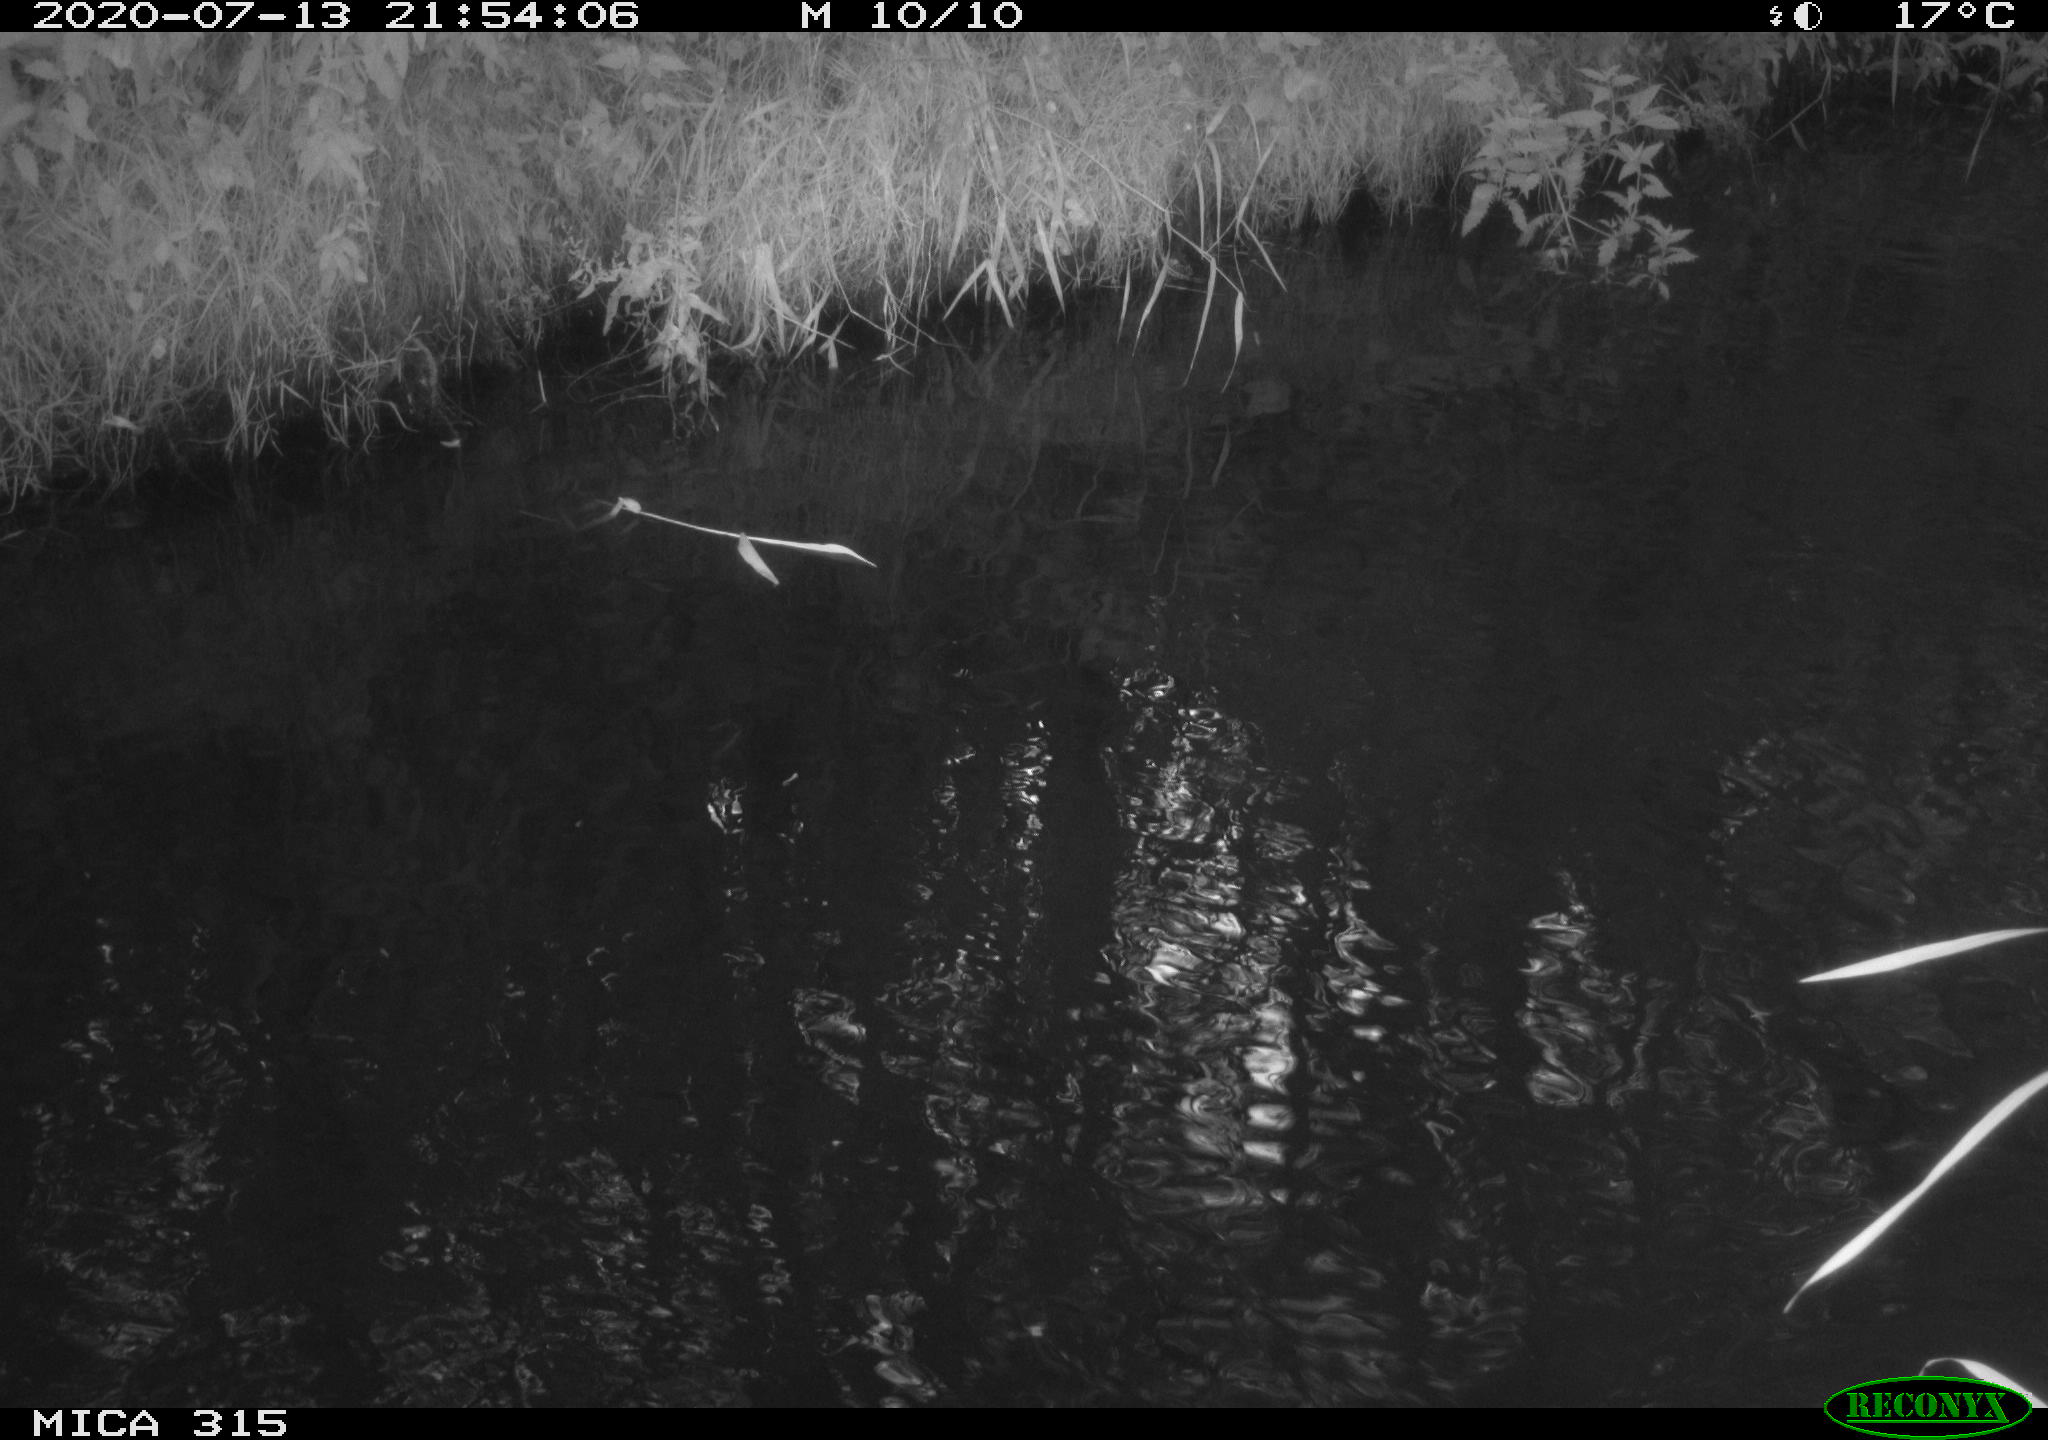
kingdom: Animalia
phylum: Chordata
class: Aves
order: Anseriformes
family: Anatidae
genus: Anas
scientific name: Anas platyrhynchos
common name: Mallard
